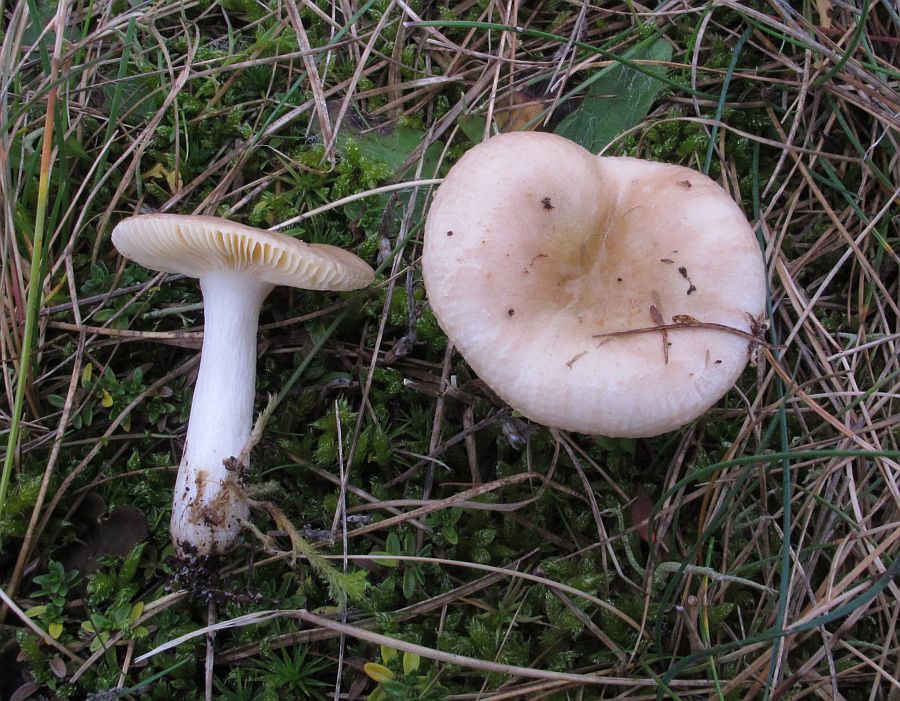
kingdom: Fungi
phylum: Basidiomycota
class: Agaricomycetes
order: Russulales
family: Russulaceae
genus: Russula
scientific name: Russula cessans
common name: fyrre-skørhat
